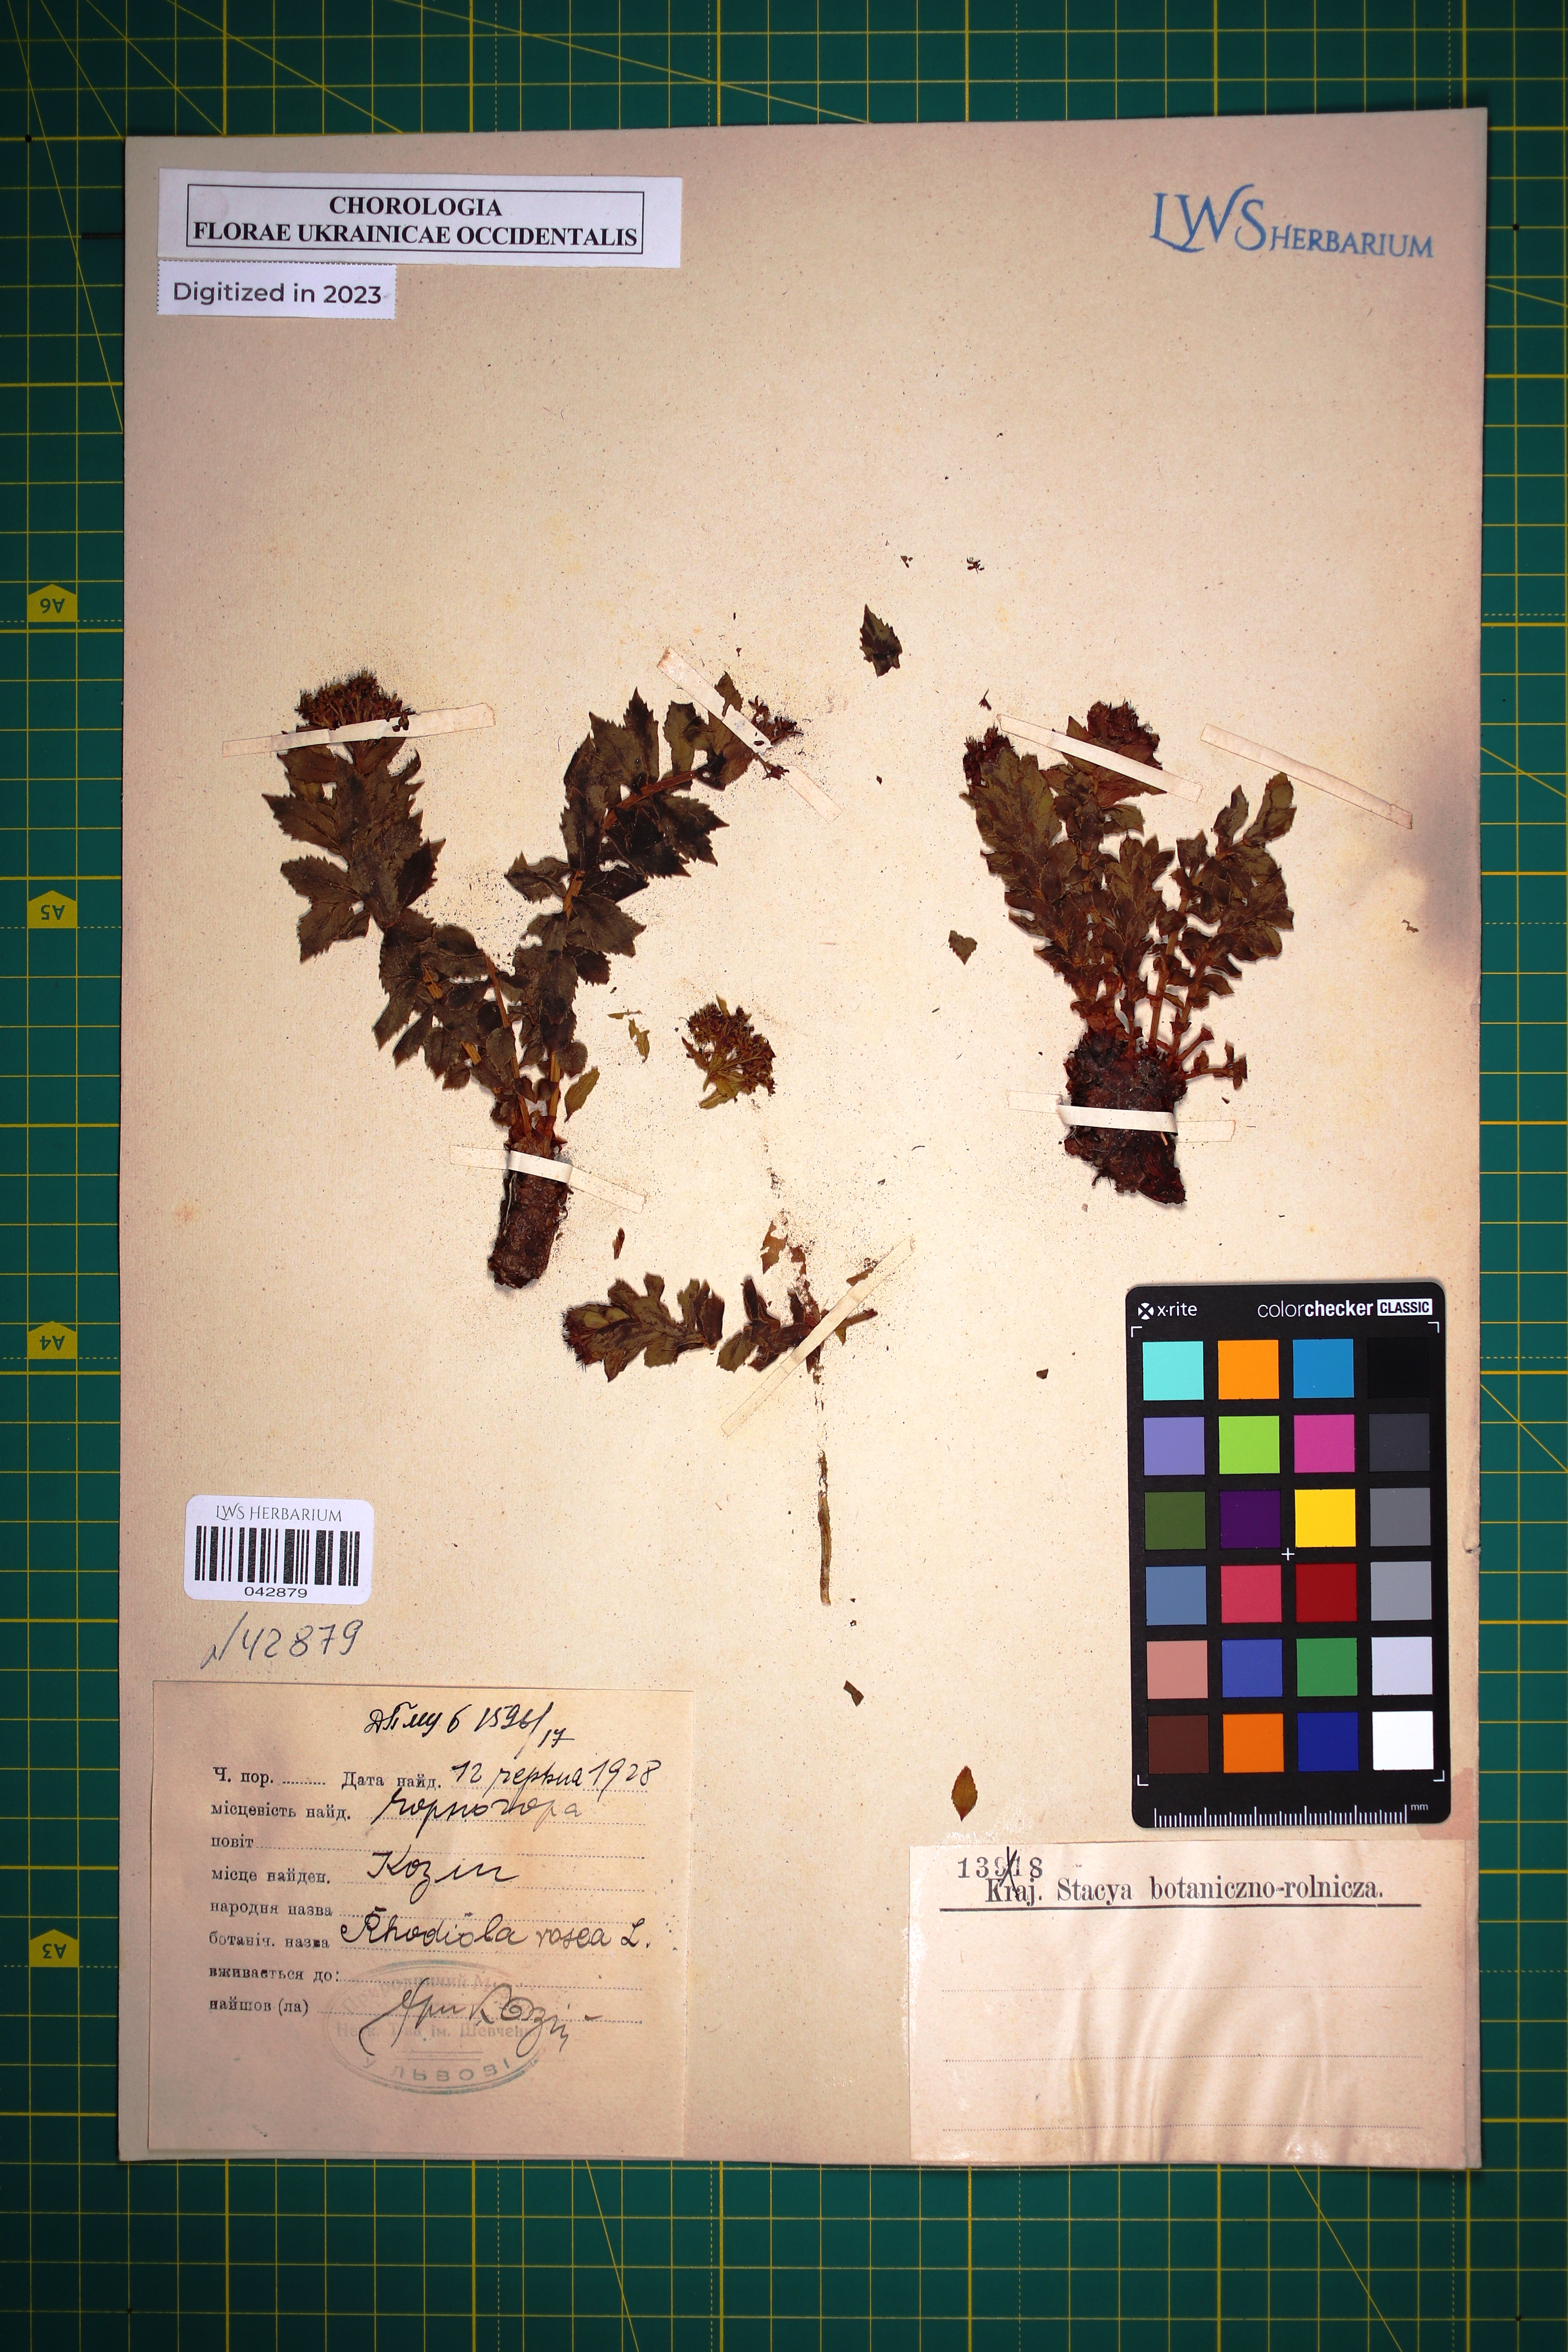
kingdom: Plantae
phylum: Tracheophyta
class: Magnoliopsida
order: Saxifragales
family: Crassulaceae
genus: Rhodiola
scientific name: Rhodiola rosea
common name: Roseroot
